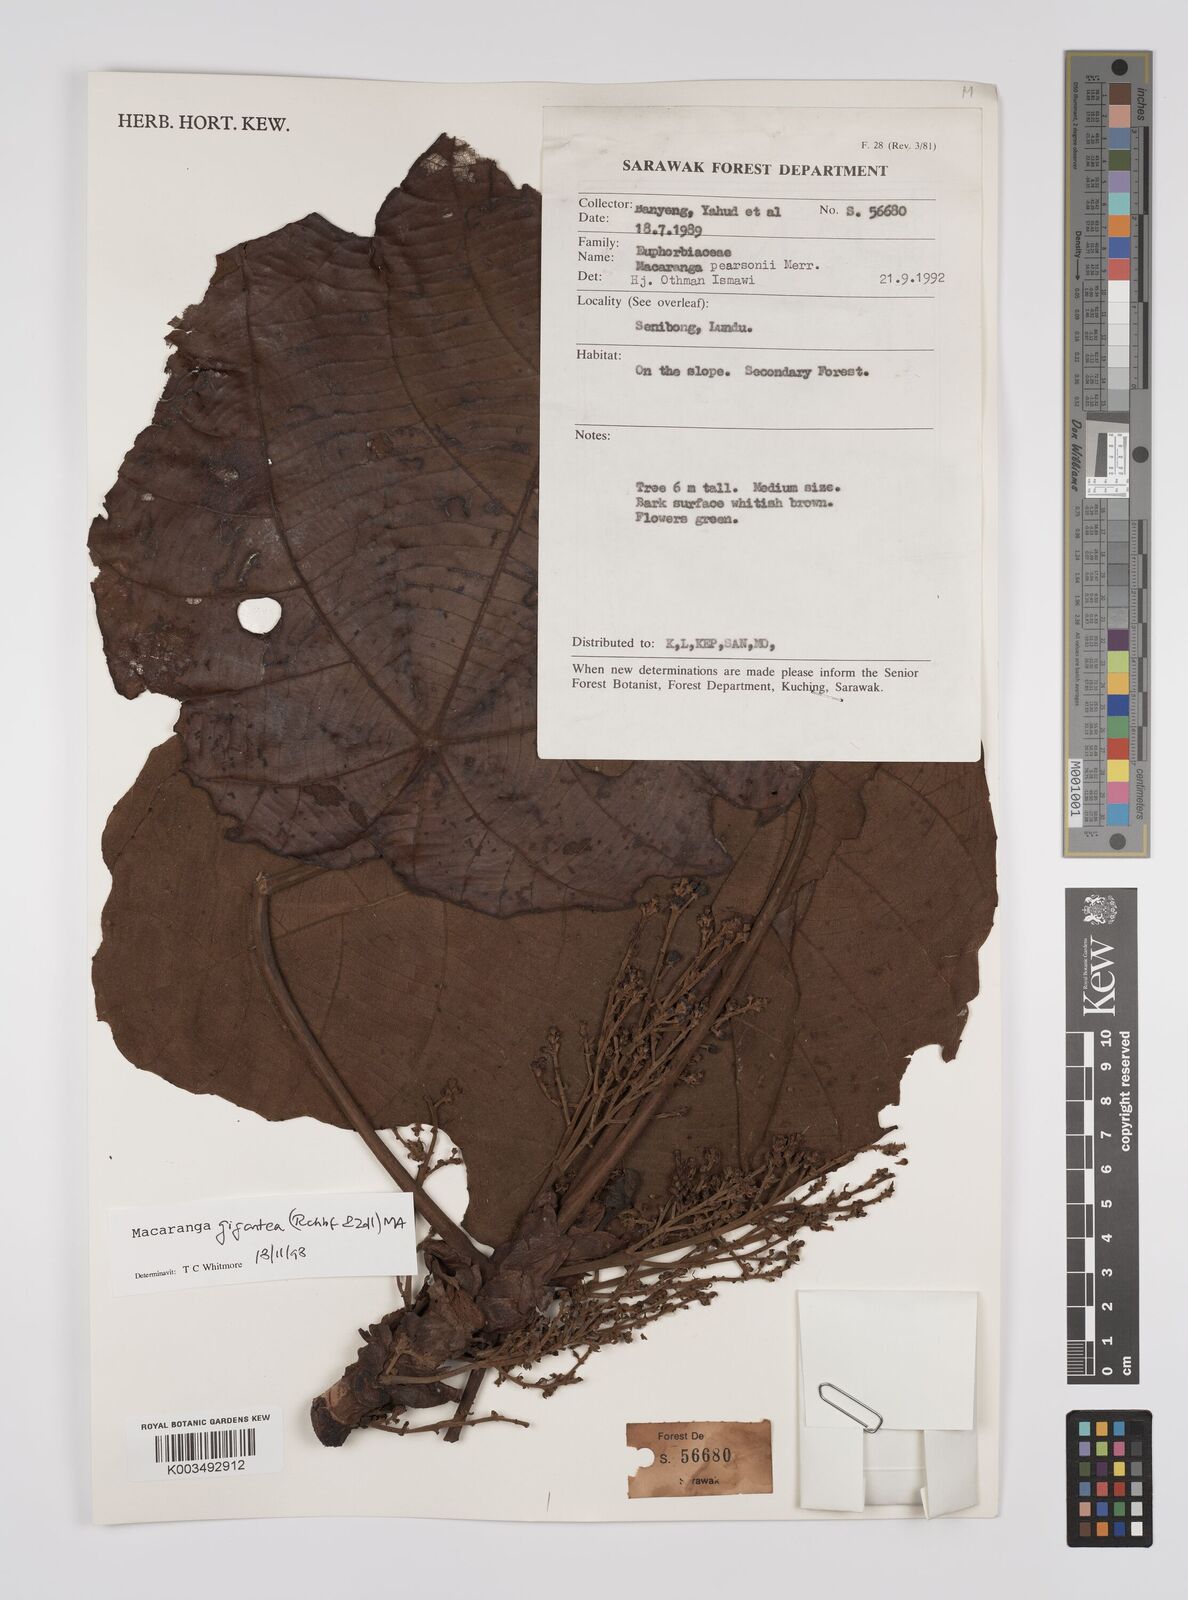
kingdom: Plantae
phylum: Tracheophyta
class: Magnoliopsida
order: Malpighiales
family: Euphorbiaceae
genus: Macaranga
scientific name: Macaranga gigantea
